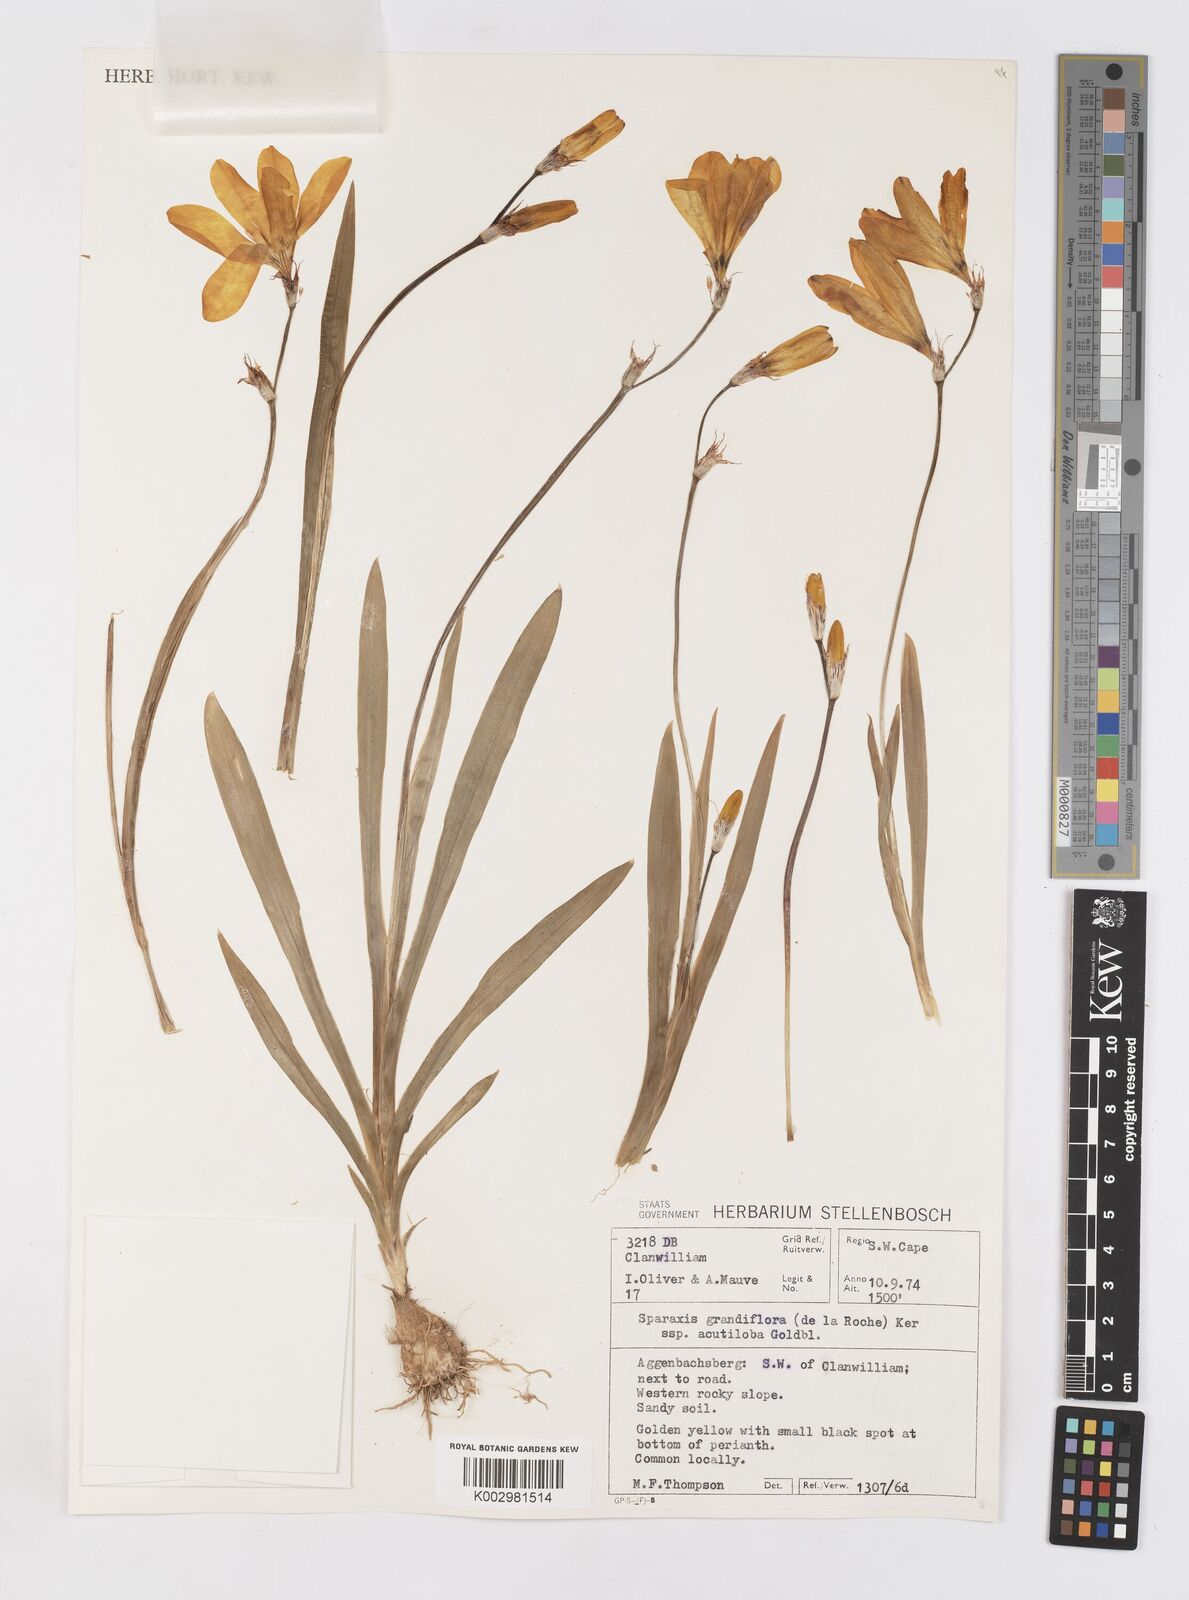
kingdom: Plantae
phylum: Tracheophyta
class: Liliopsida
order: Asparagales
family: Iridaceae
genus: Sparaxis
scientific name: Sparaxis grandiflora
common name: Plain harlequin-flower
